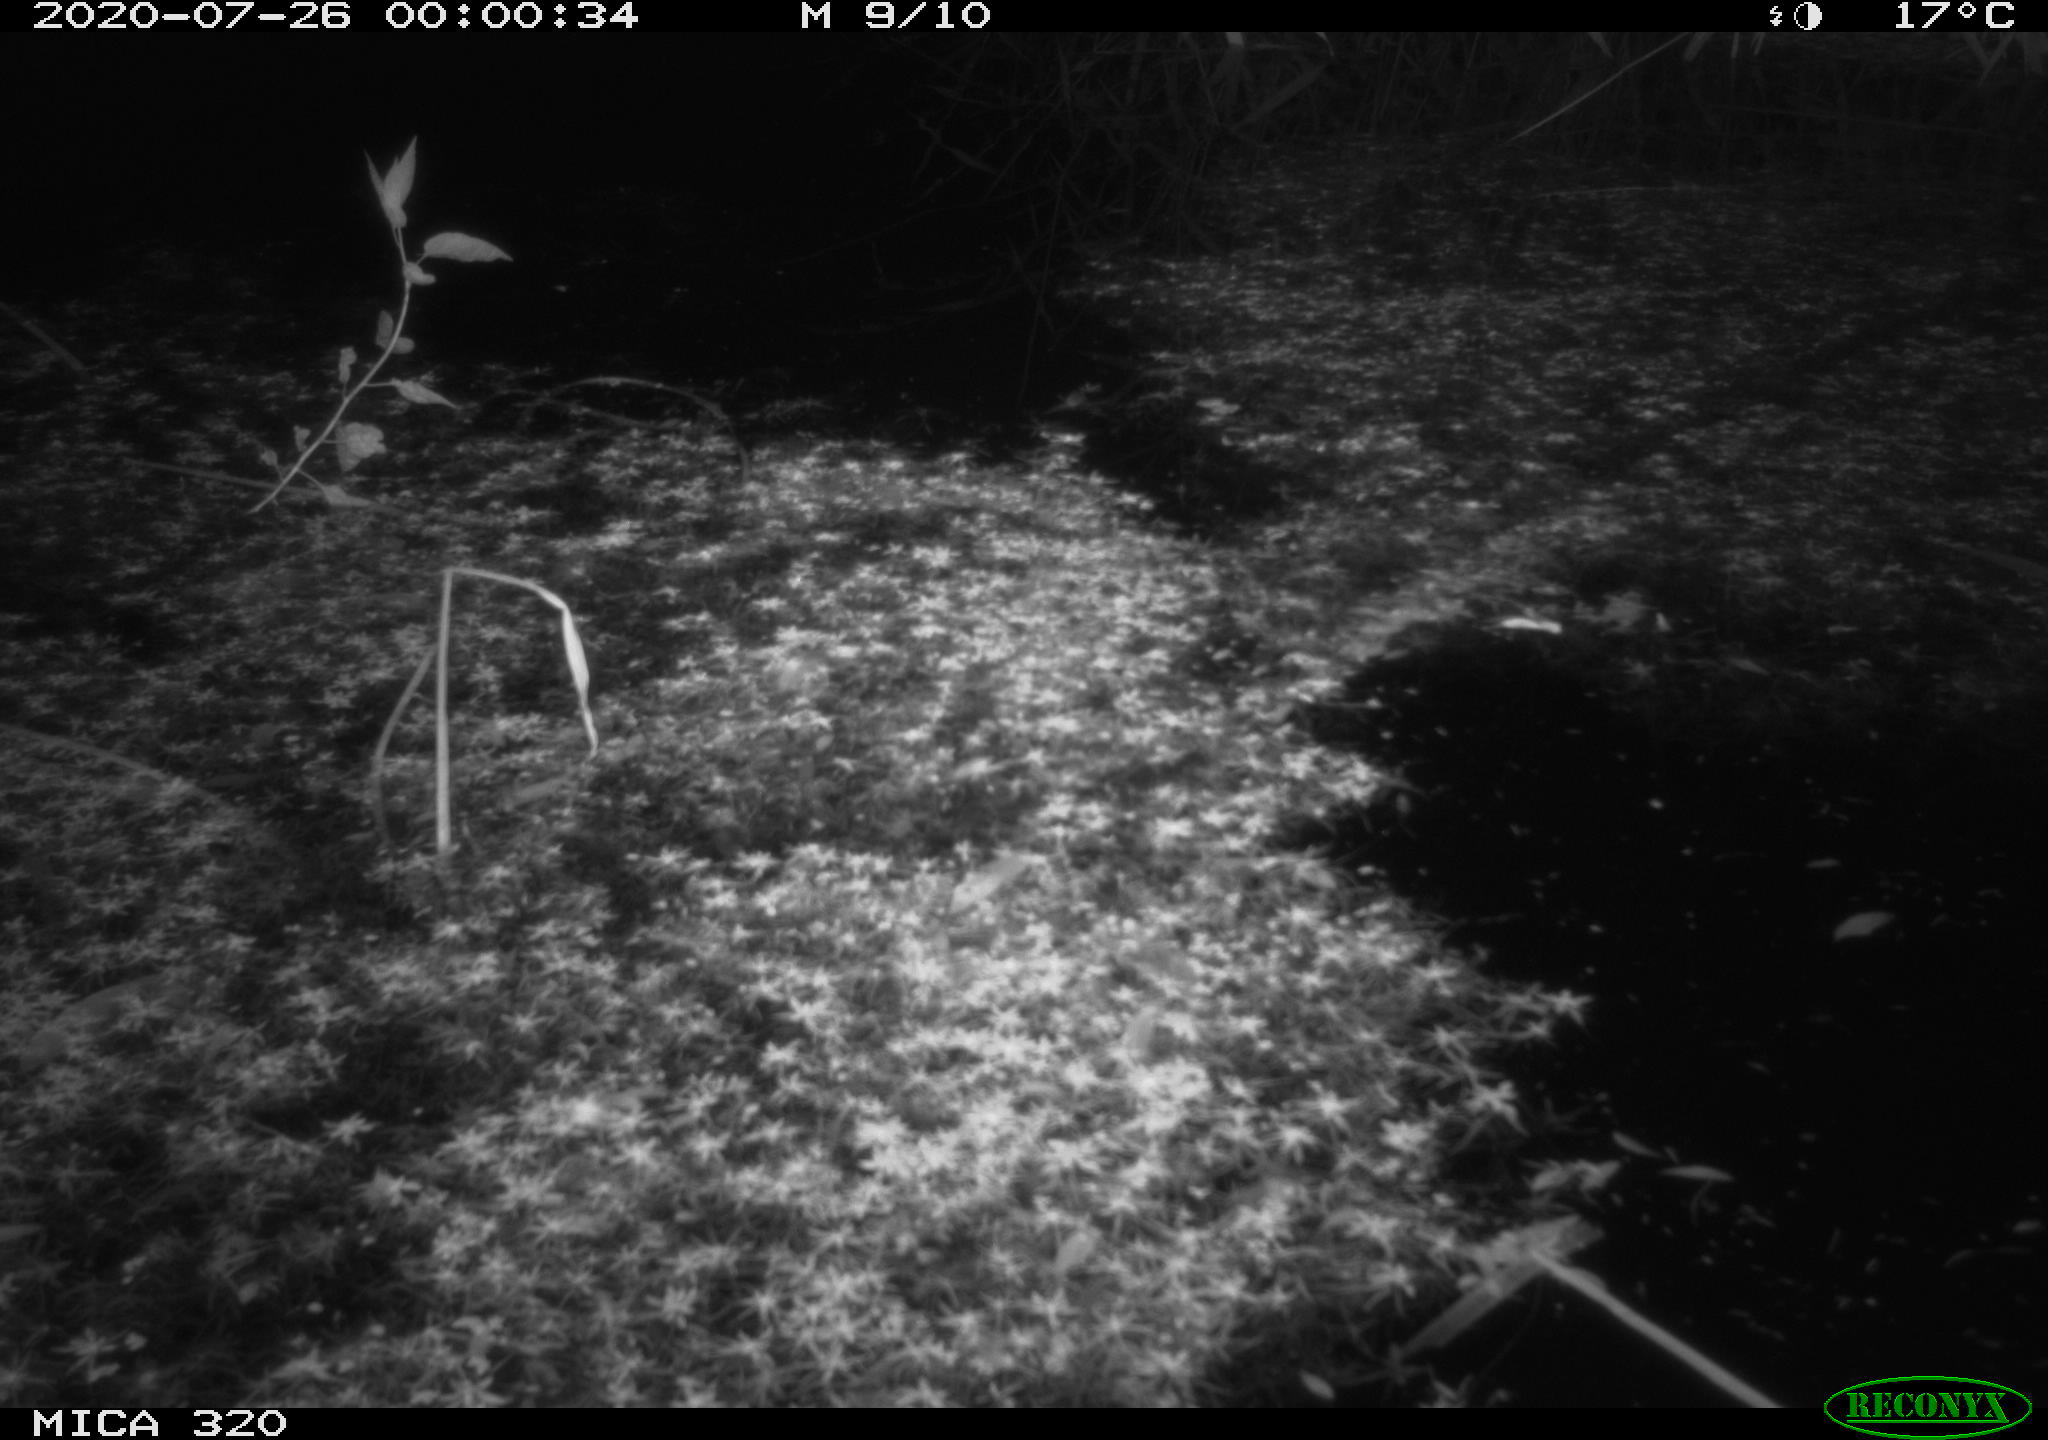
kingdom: Animalia
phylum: Chordata
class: Mammalia
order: Rodentia
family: Muridae
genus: Rattus
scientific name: Rattus norvegicus
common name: Brown rat
